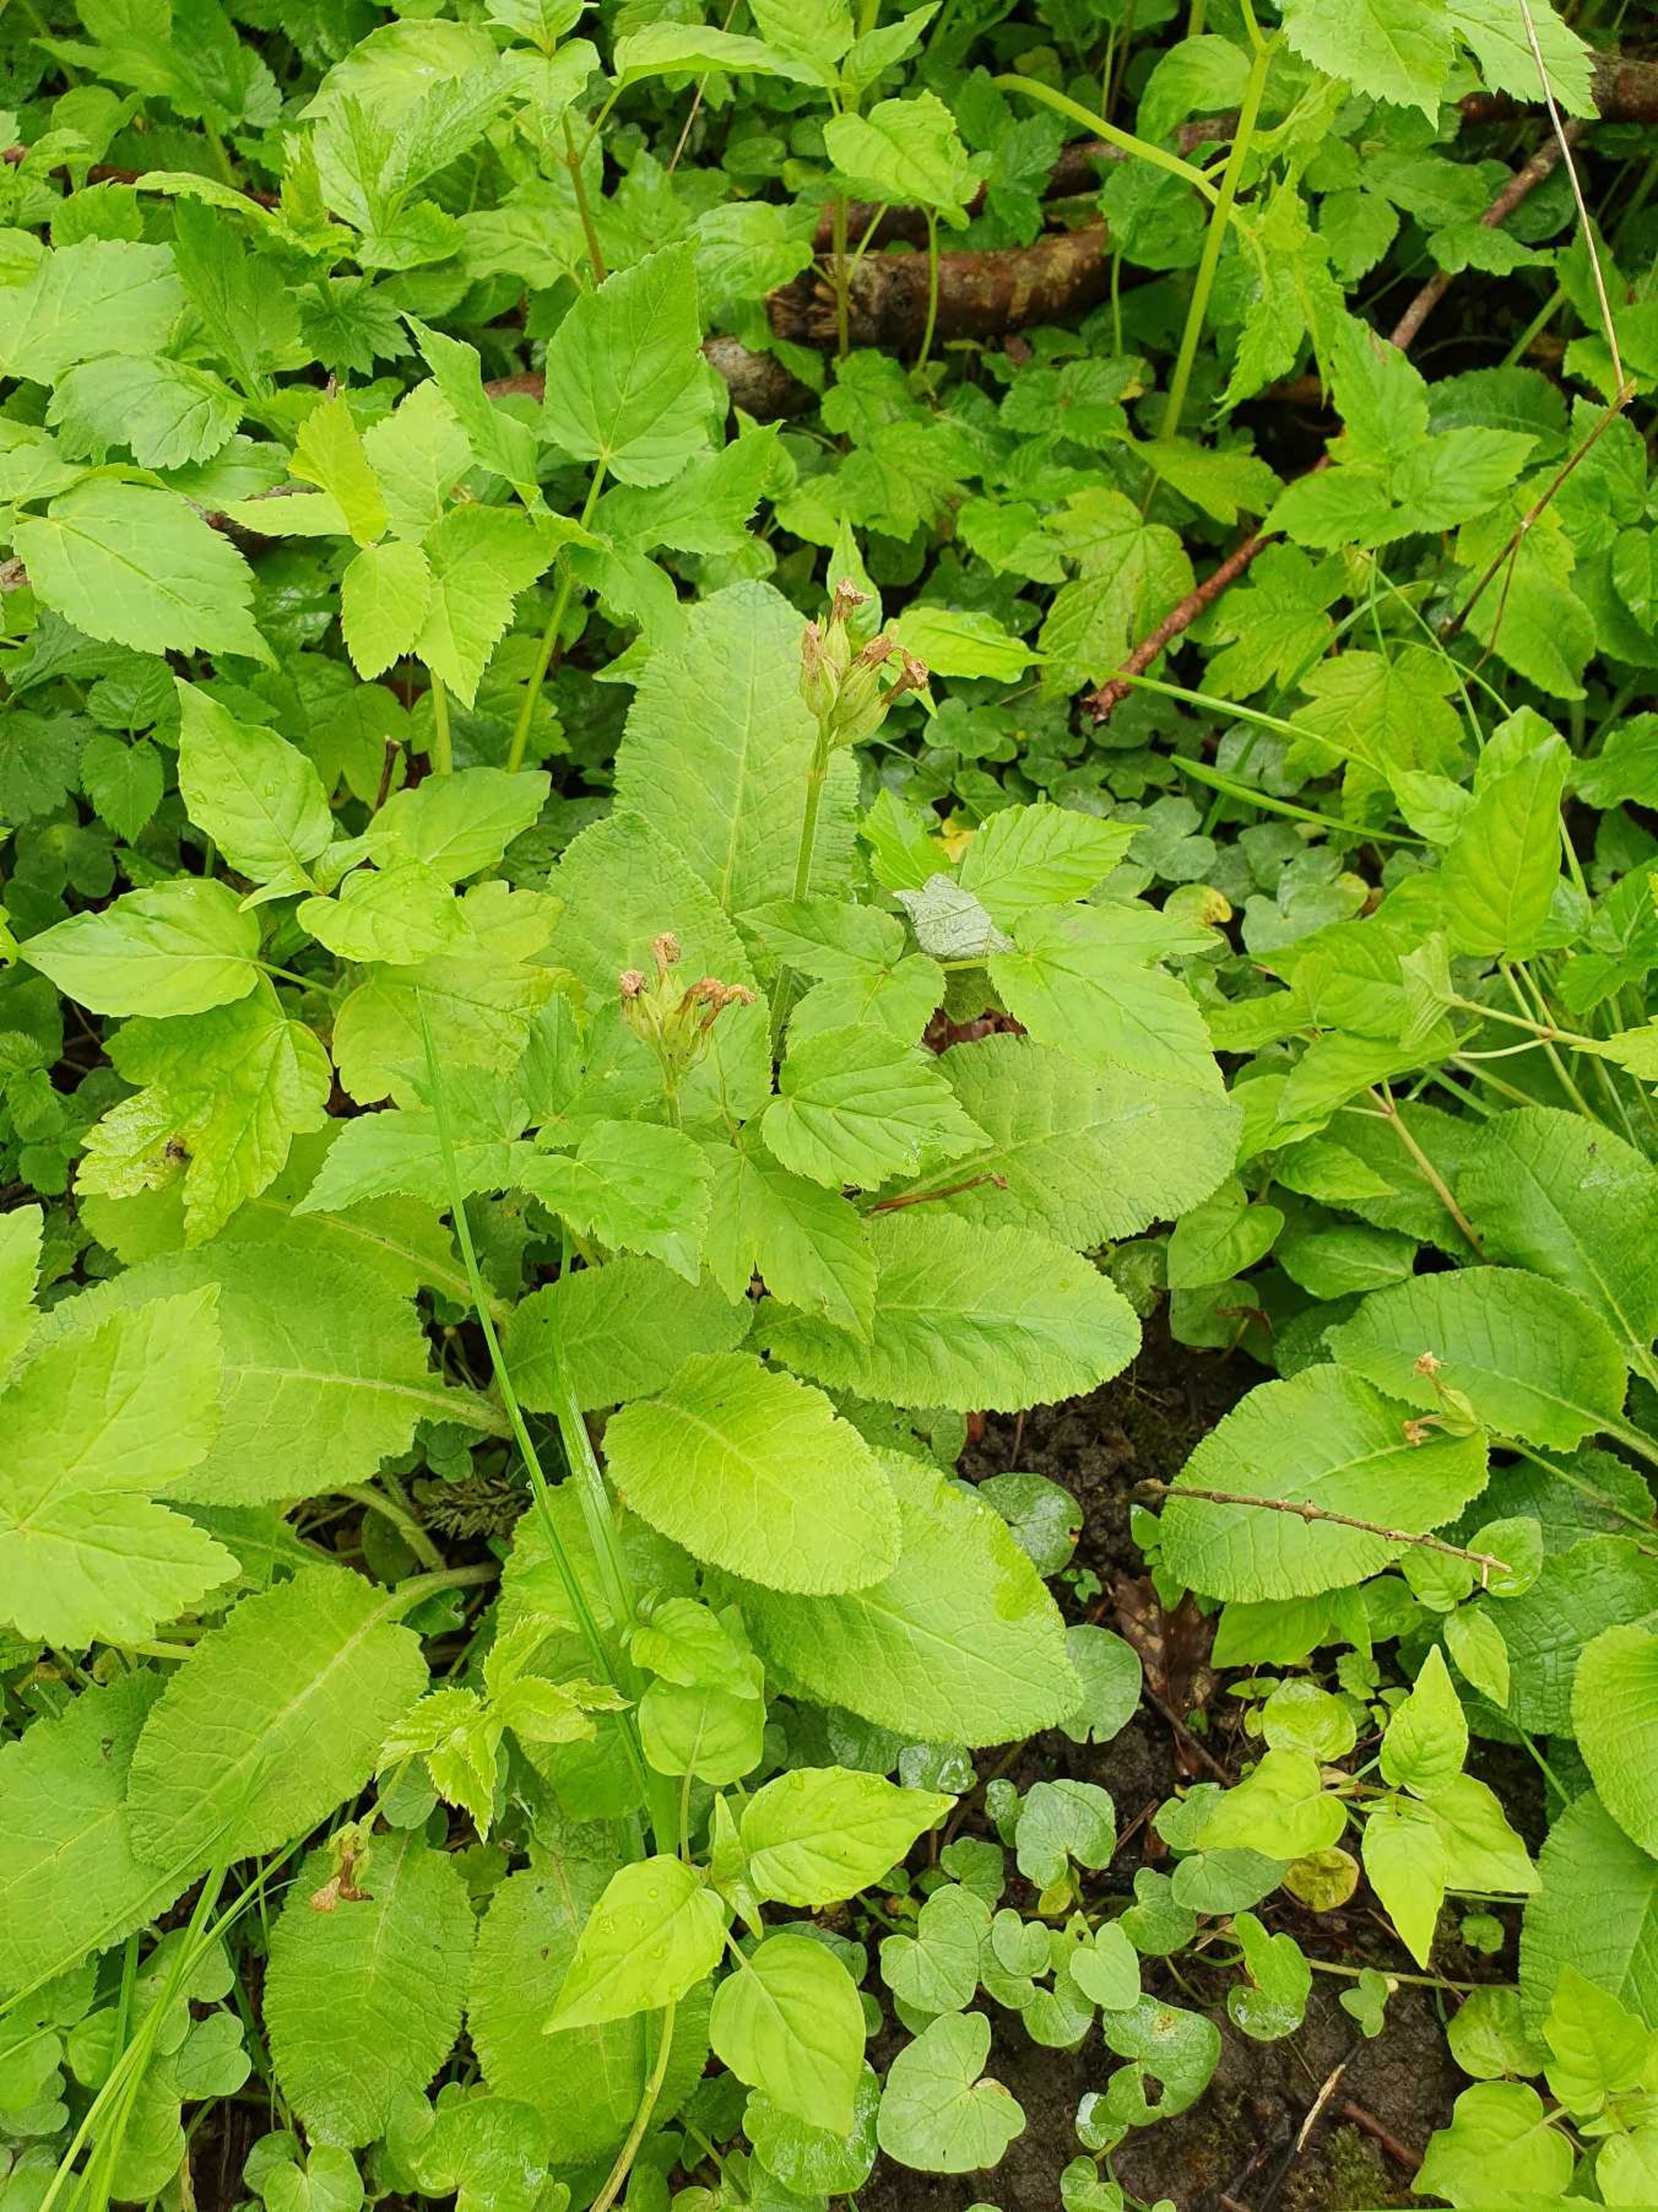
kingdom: Plantae
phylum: Tracheophyta
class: Magnoliopsida
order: Ericales
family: Primulaceae
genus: Primula
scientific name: Primula veris
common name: Hulkravet kodriver
